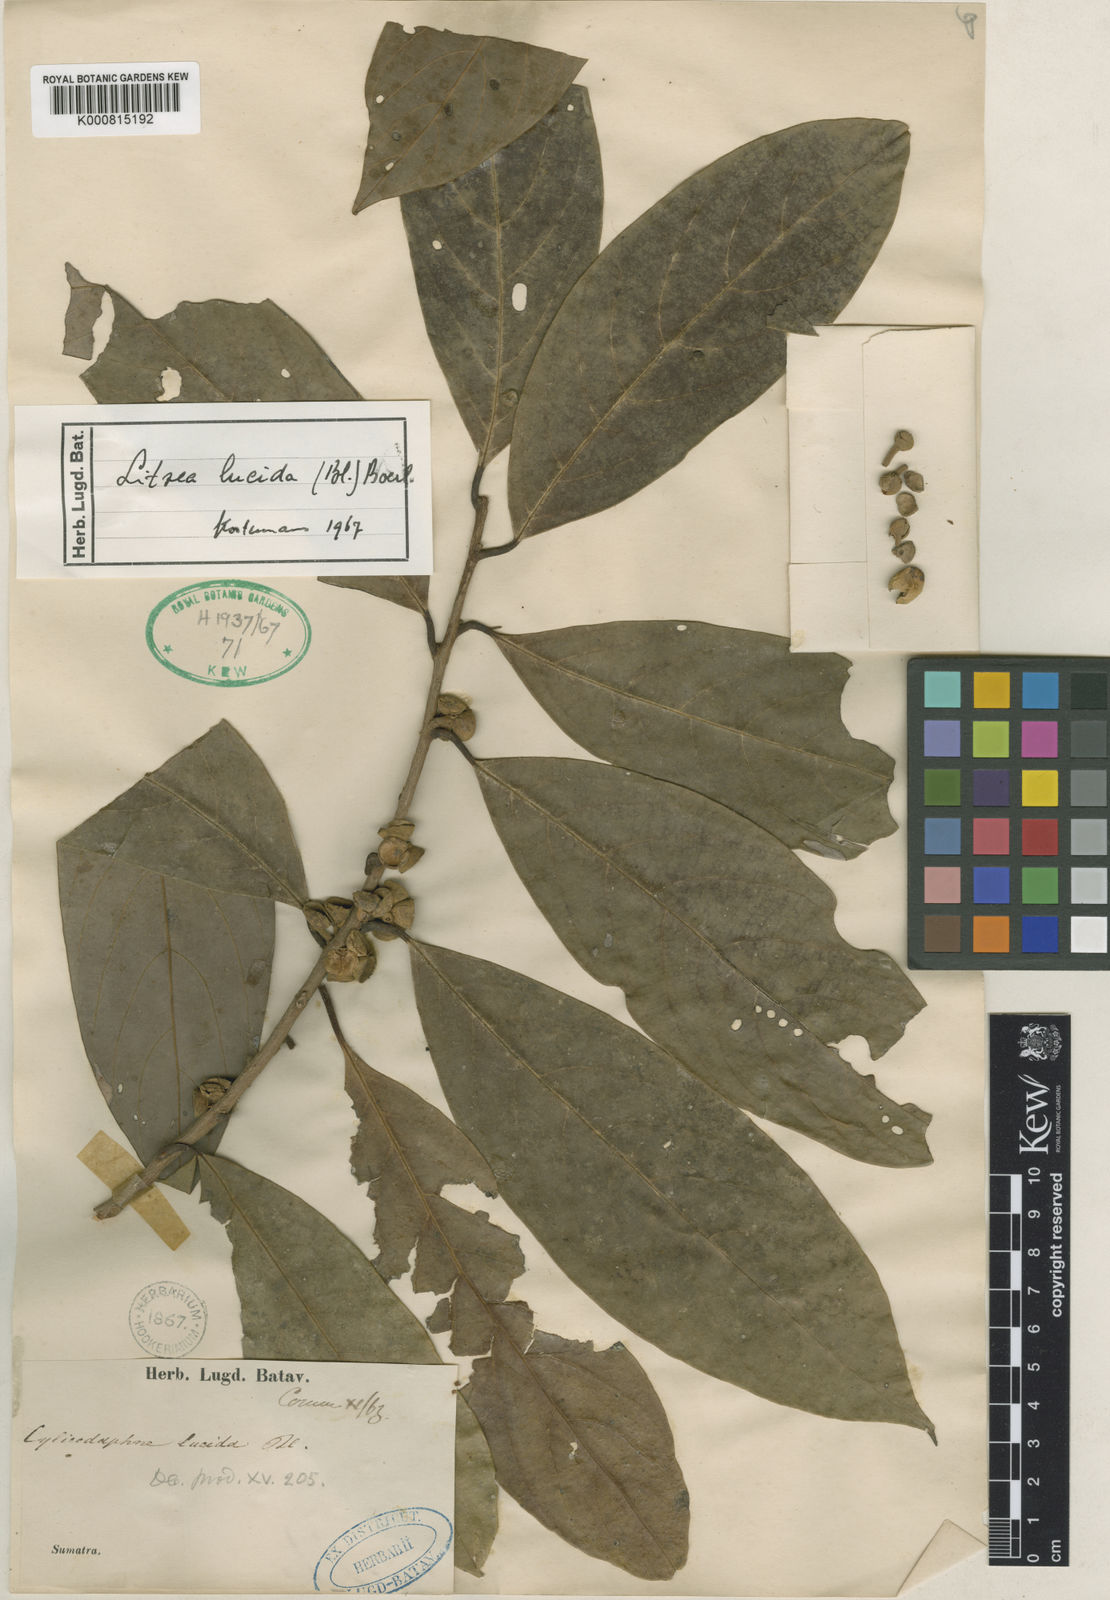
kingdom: Plantae
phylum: Tracheophyta
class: Magnoliopsida
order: Laurales
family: Lauraceae
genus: Lindera
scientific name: Lindera lucida
